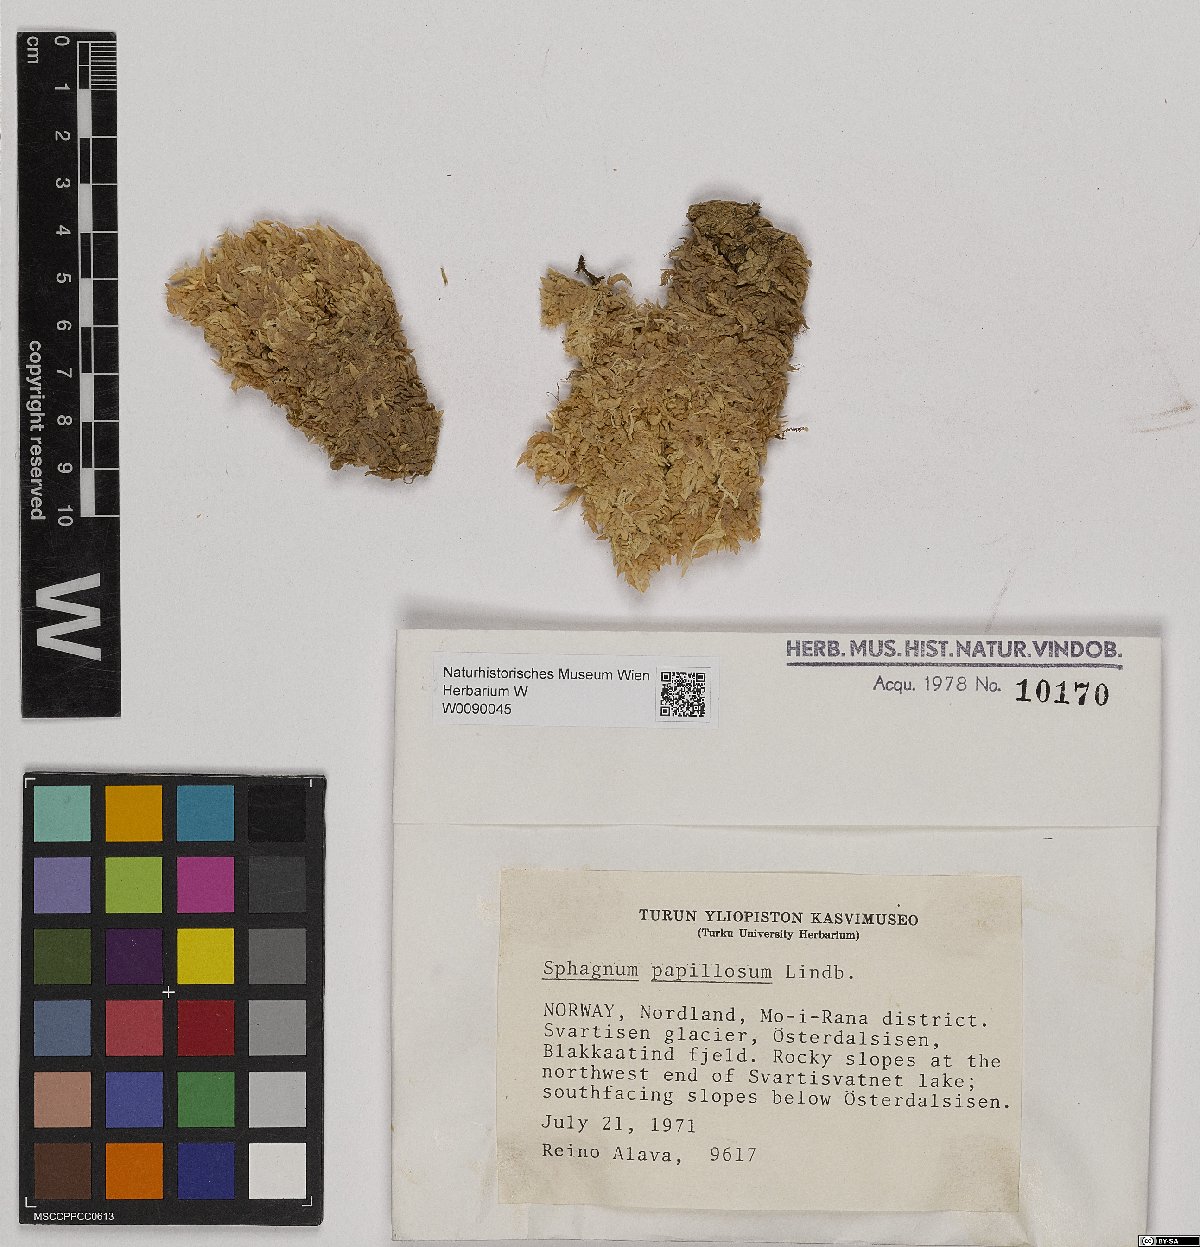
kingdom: Plantae
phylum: Bryophyta
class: Sphagnopsida
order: Sphagnales
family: Sphagnaceae
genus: Sphagnum
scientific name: Sphagnum papillosum
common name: Papillose peat moss
